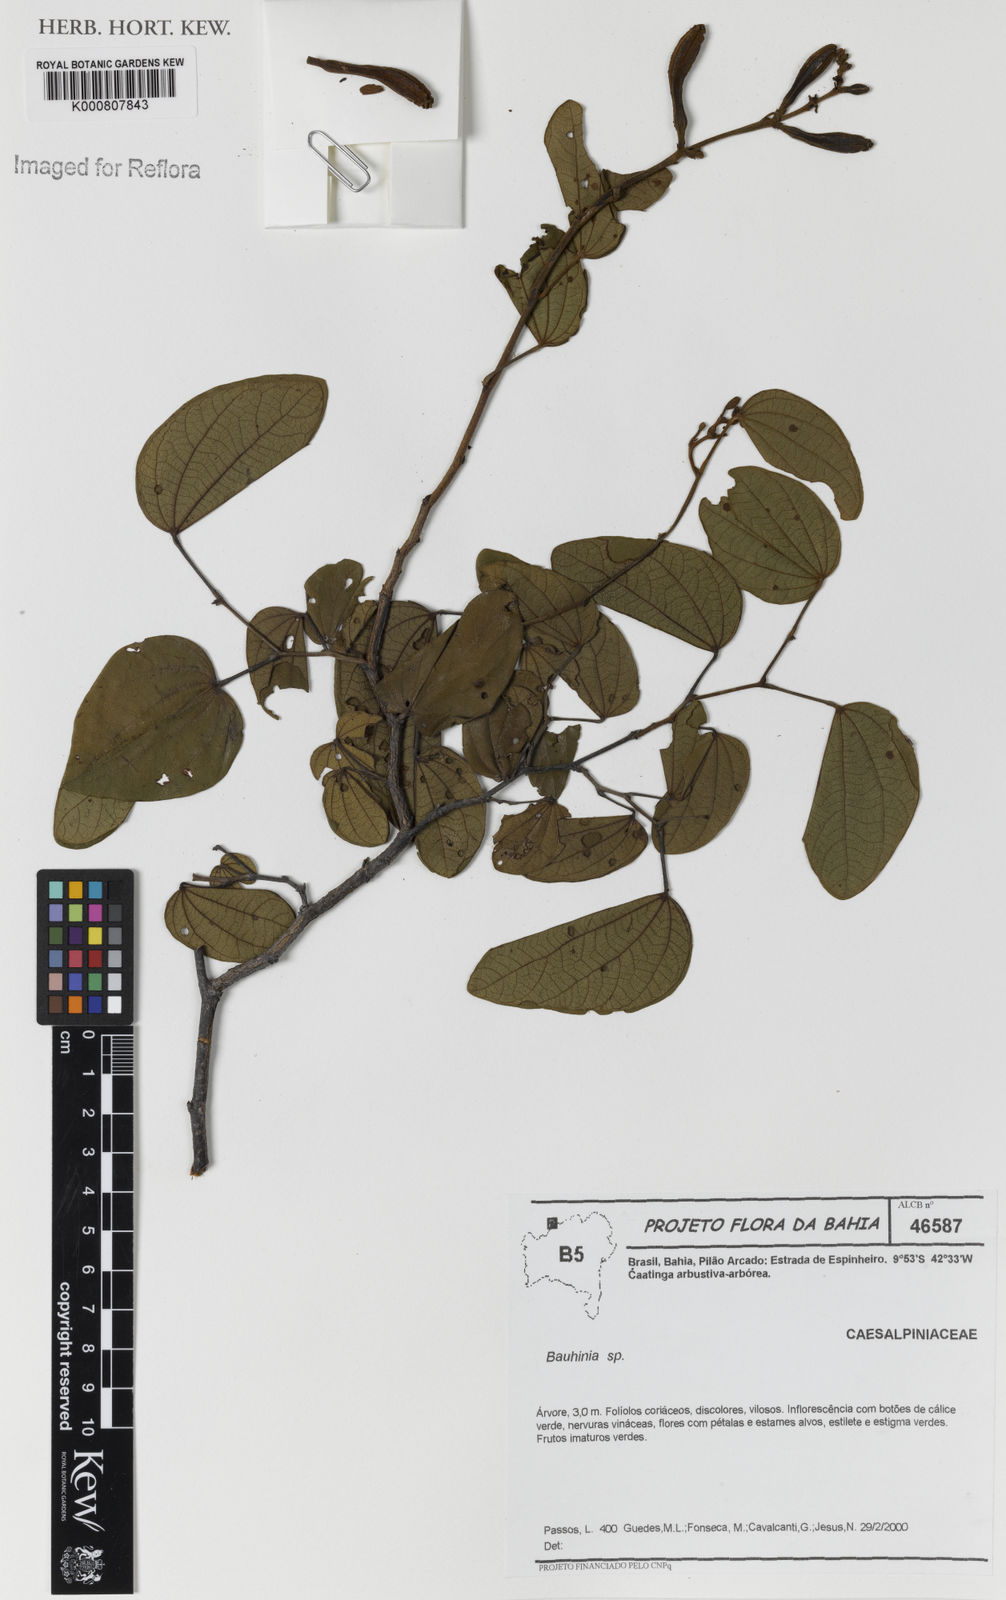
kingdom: Plantae
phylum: Tracheophyta
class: Magnoliopsida
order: Fabales
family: Fabaceae
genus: Bauhinia
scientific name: Bauhinia
